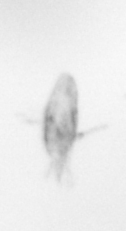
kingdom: Animalia
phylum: Arthropoda
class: Copepoda
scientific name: Copepoda
